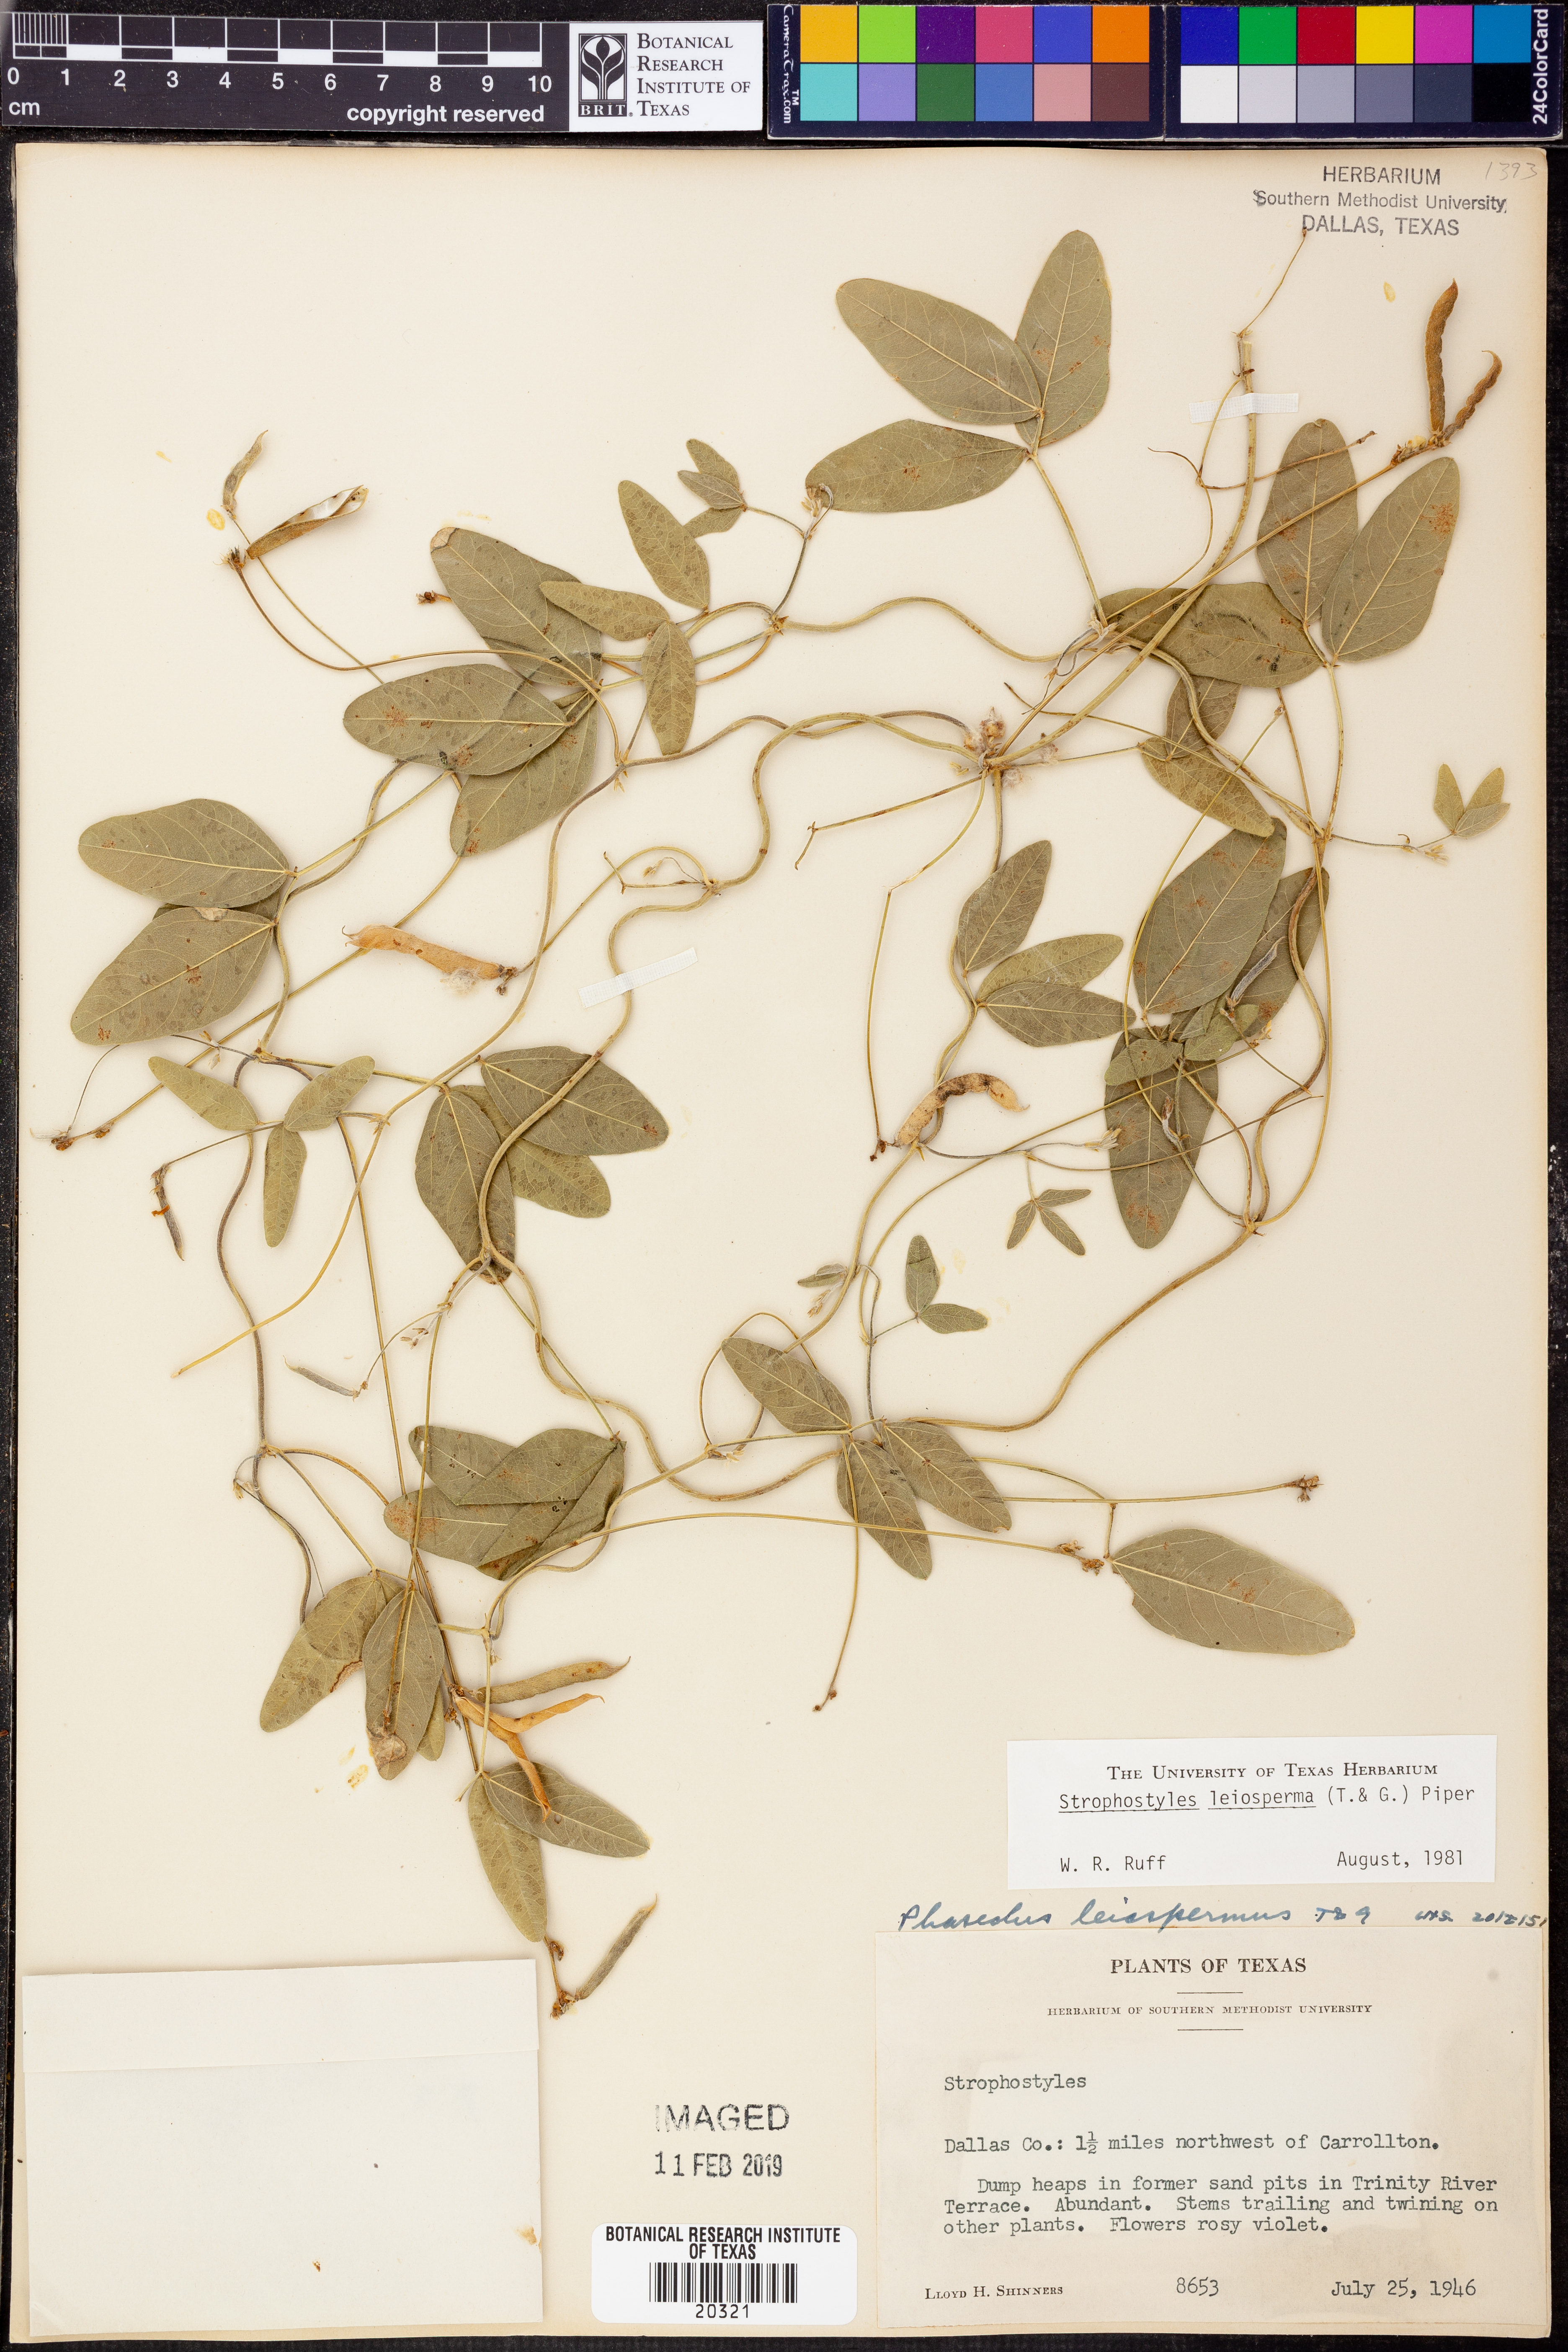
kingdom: Plantae
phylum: Tracheophyta
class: Magnoliopsida
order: Fabales
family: Fabaceae
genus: Strophostyles
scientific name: Strophostyles leiosperma
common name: Smooth-seed wild bean
